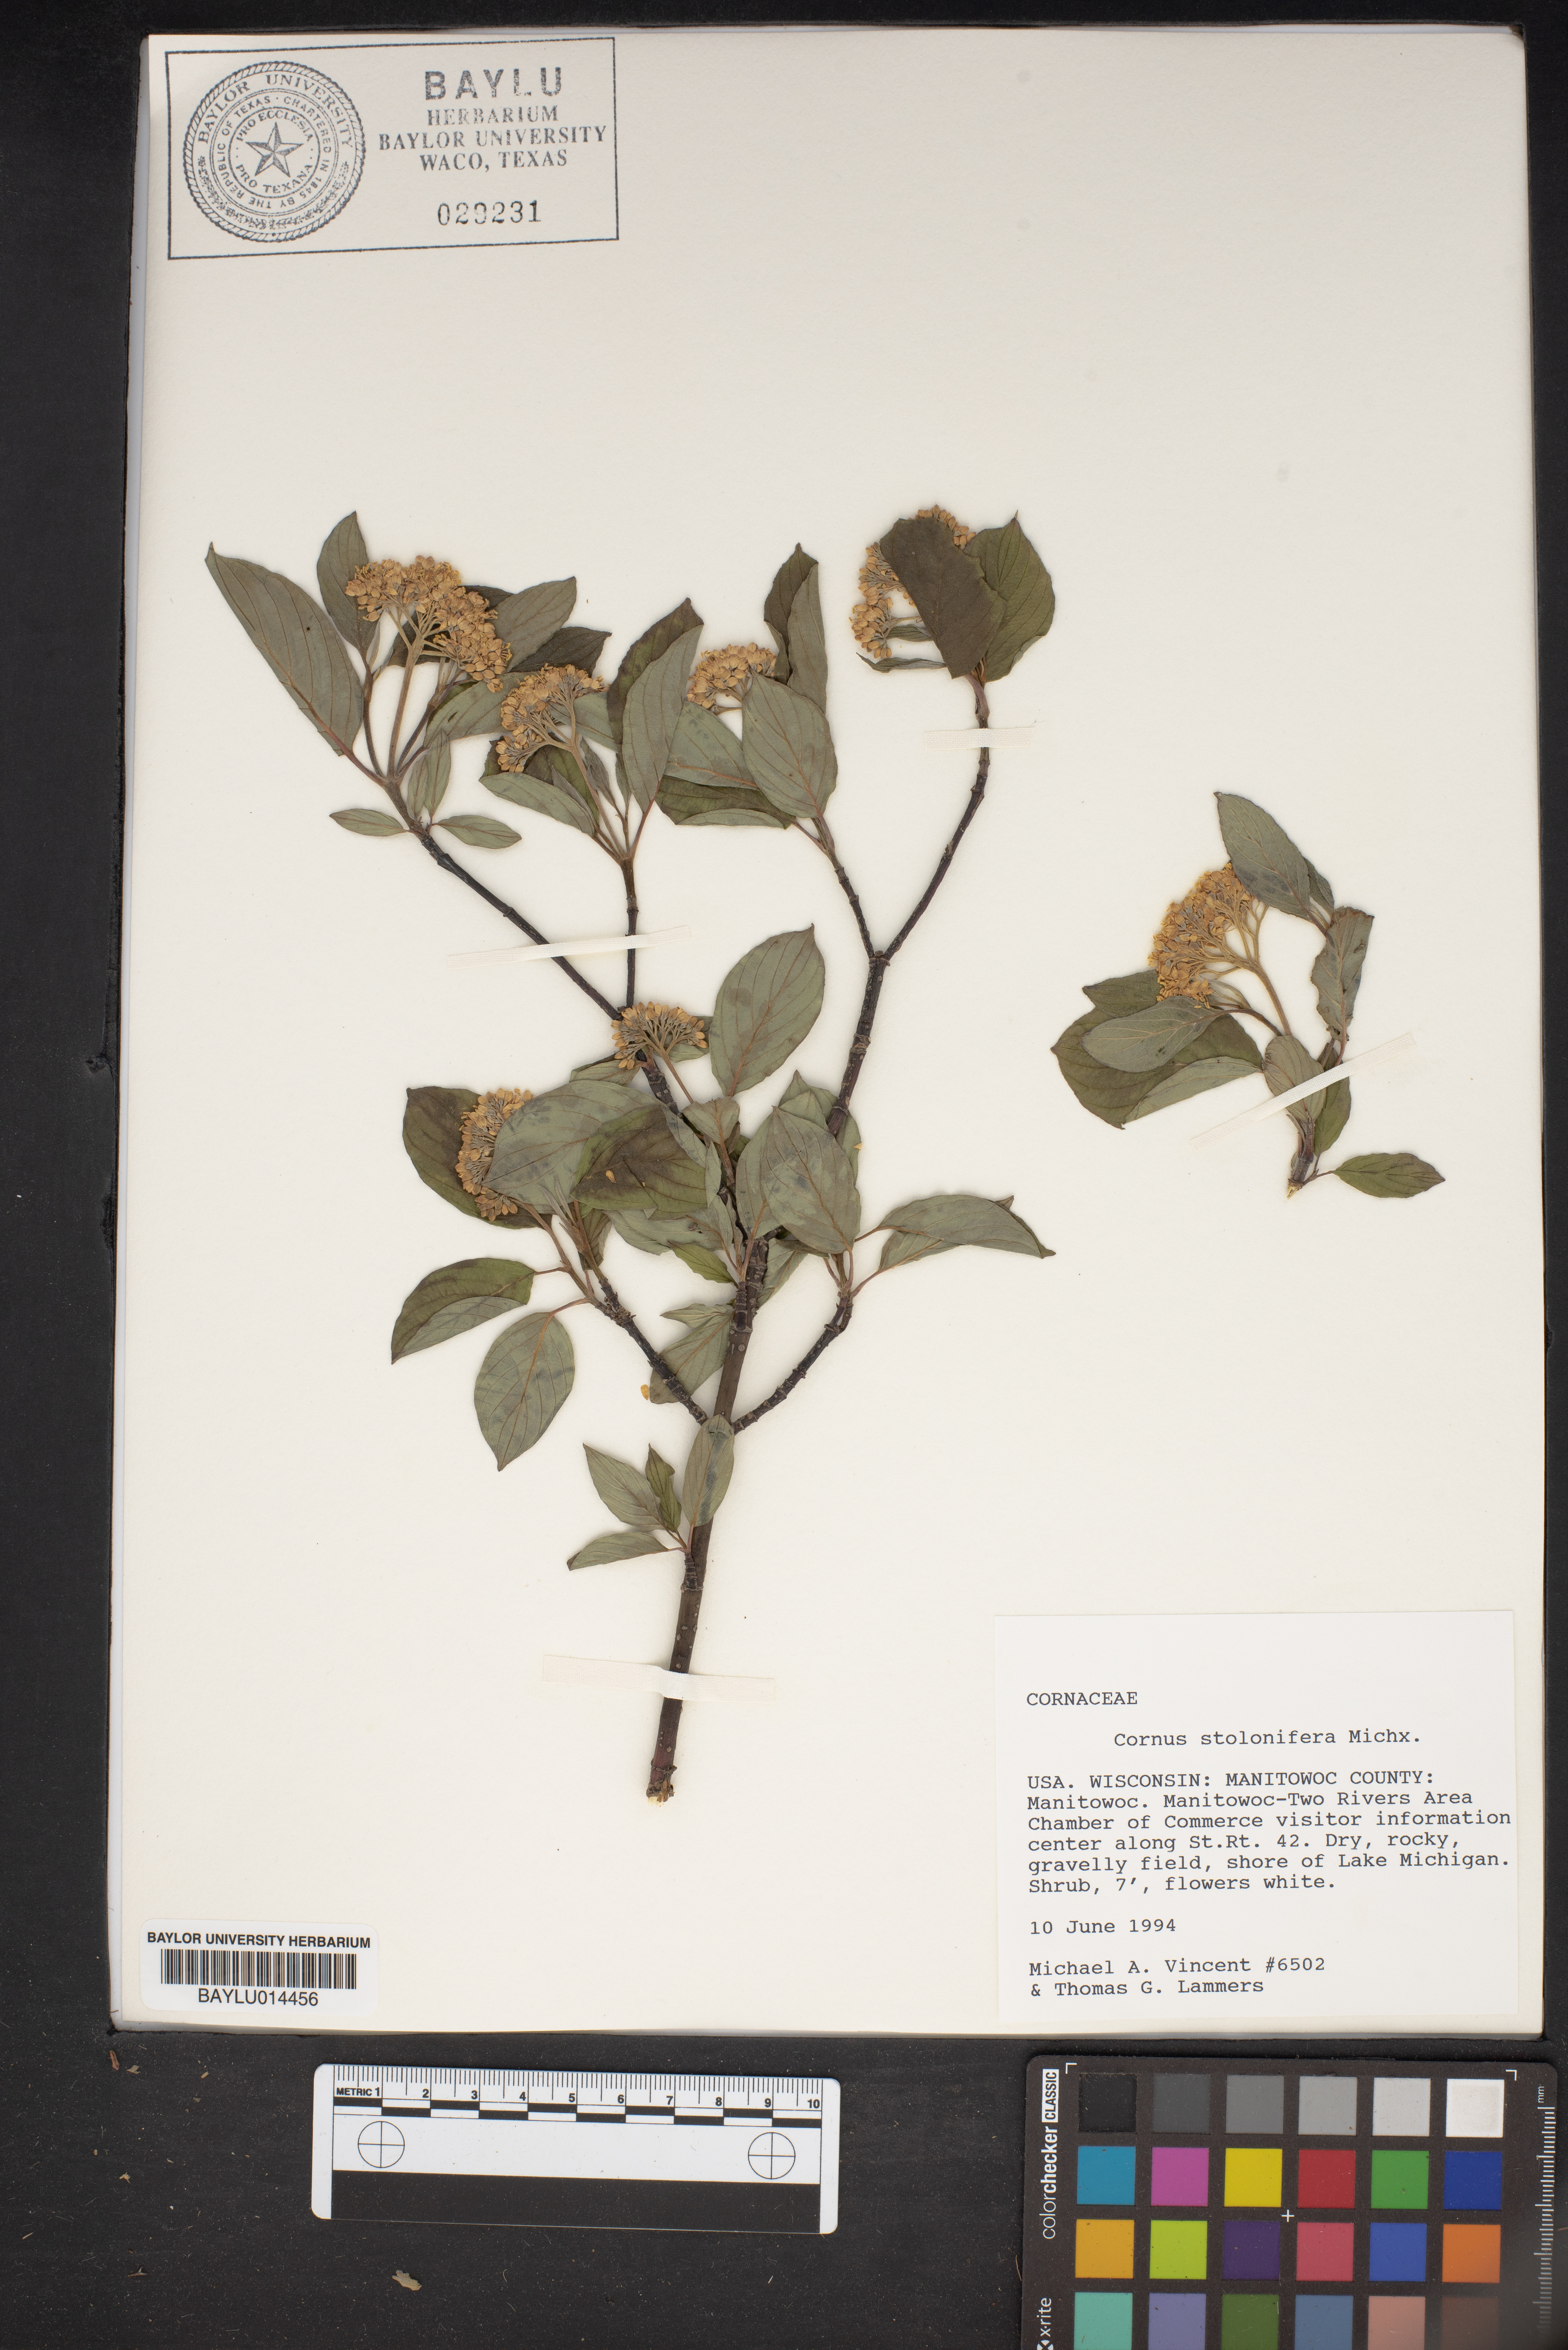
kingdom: Plantae
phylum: Tracheophyta
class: Magnoliopsida
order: Cornales
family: Cornaceae
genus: Cornus
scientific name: Cornus sericea
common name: Red-osier dogwood
